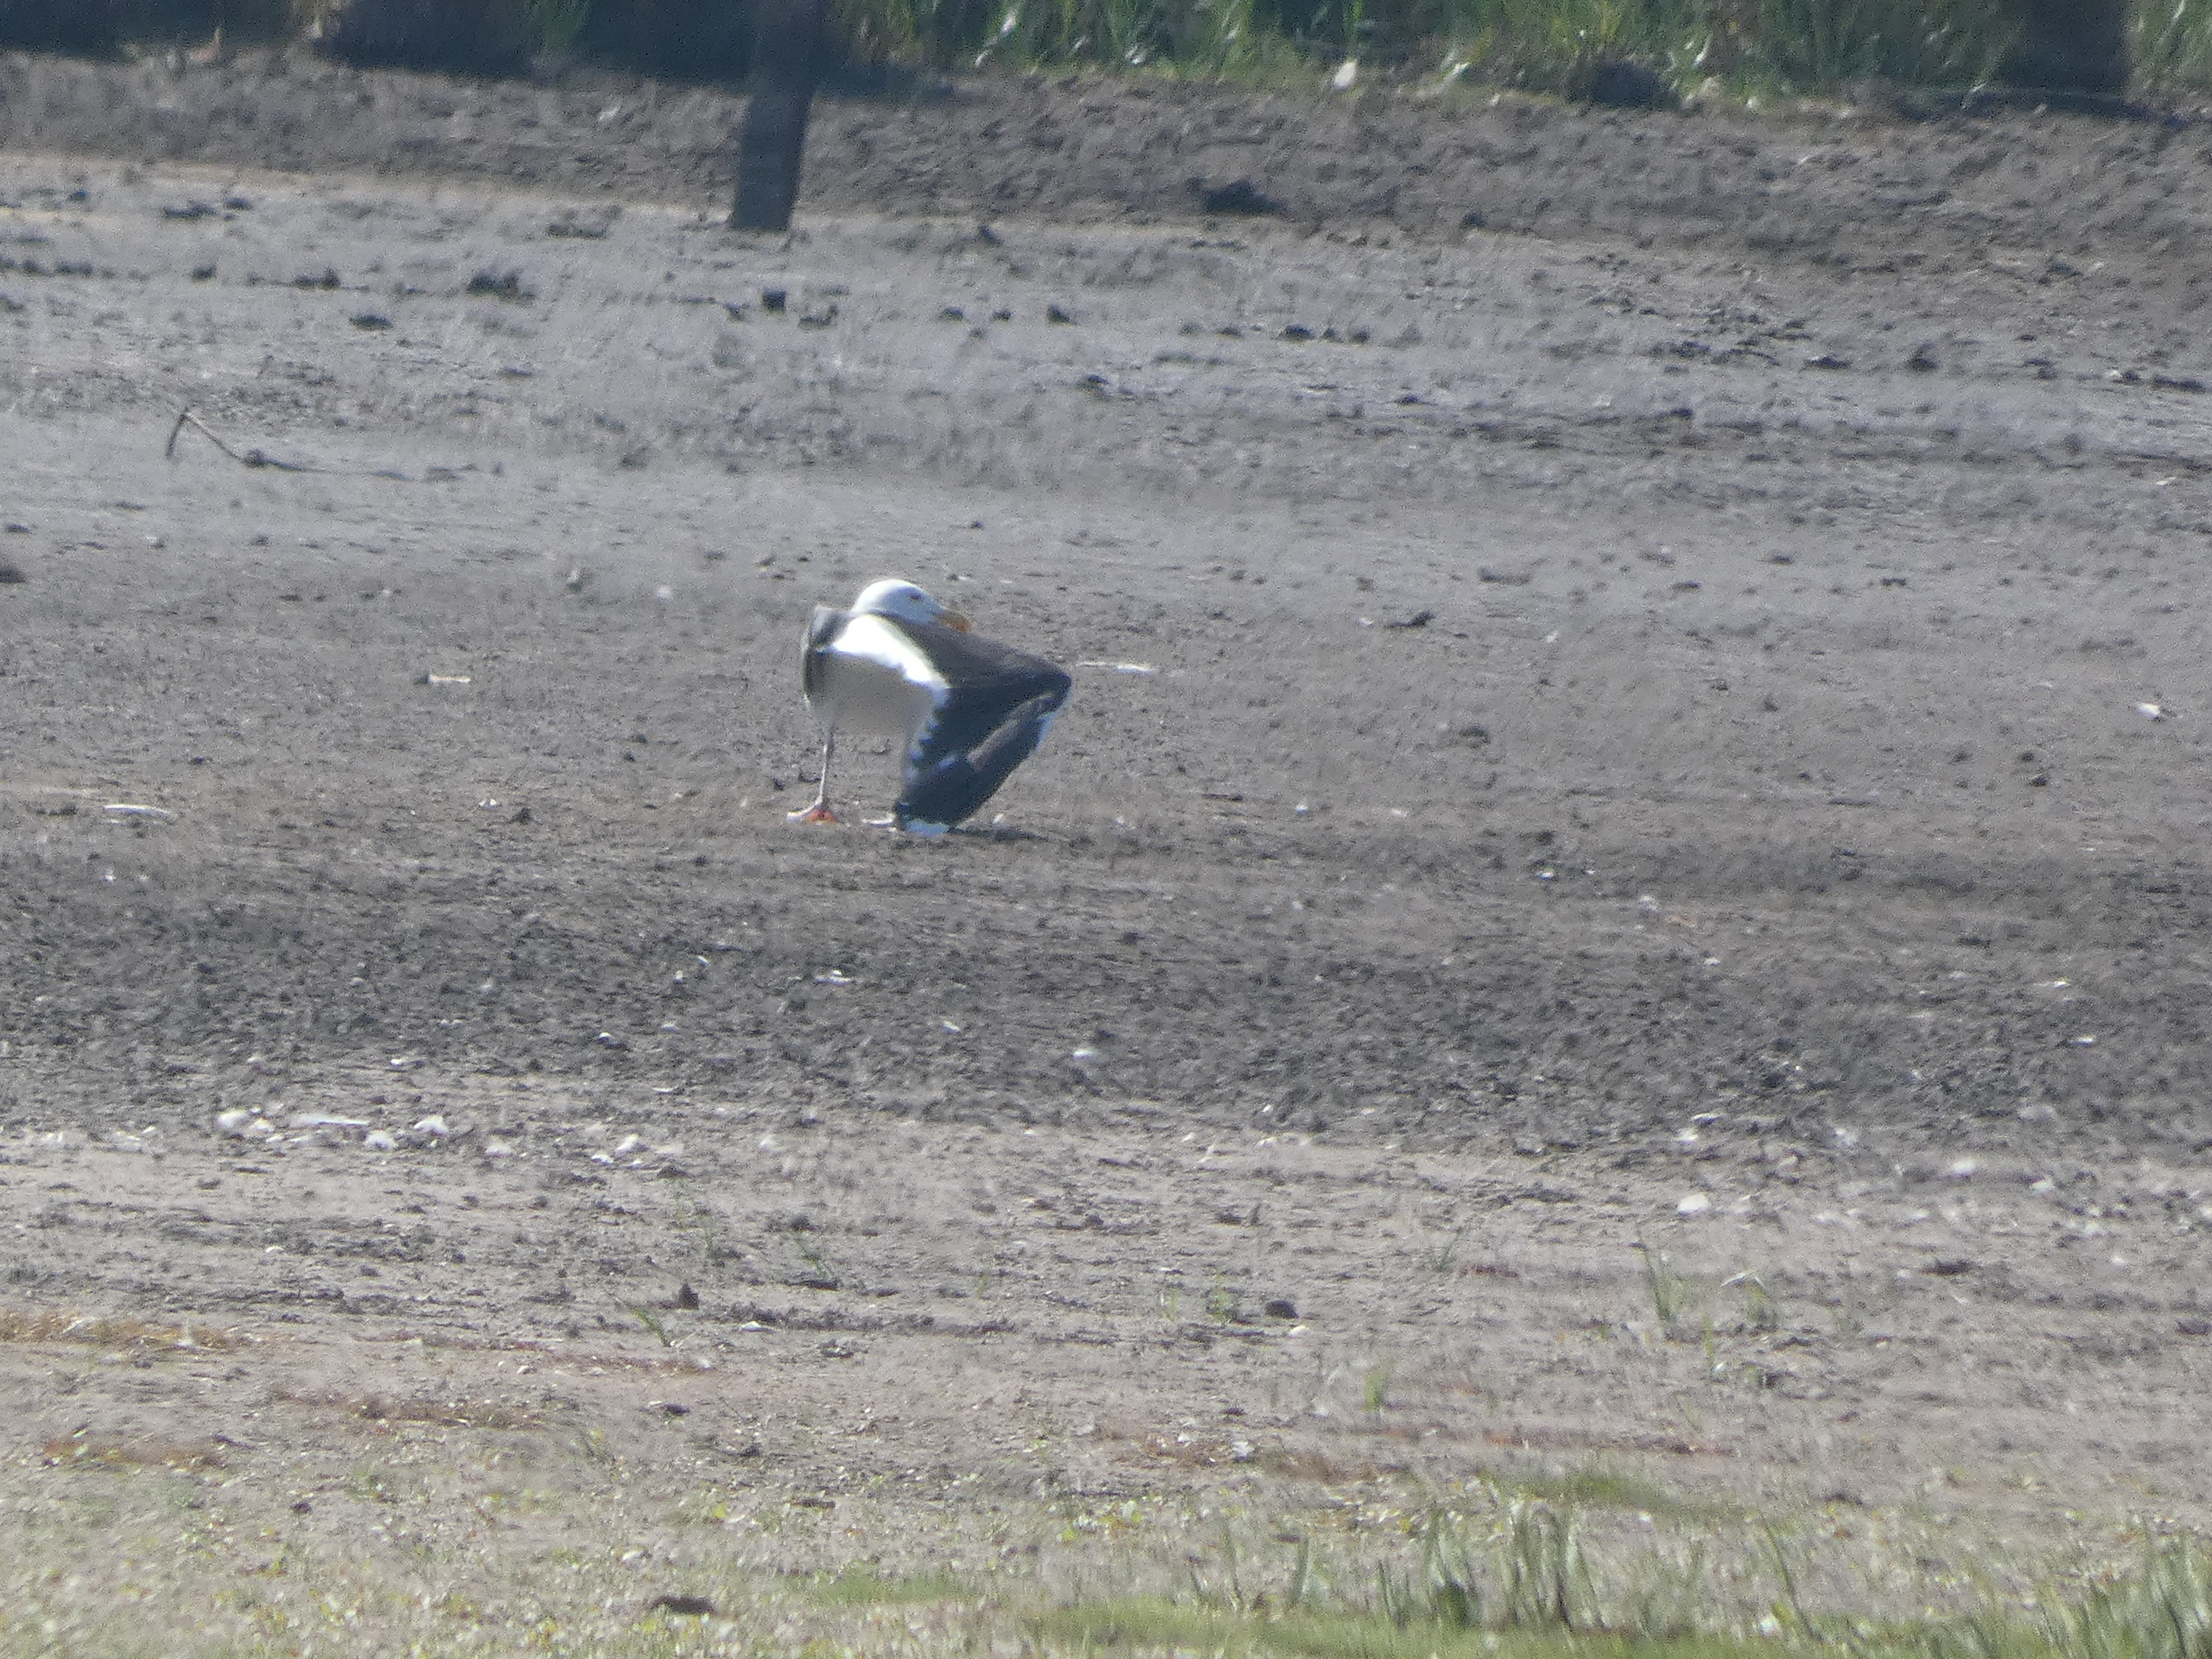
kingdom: Animalia
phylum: Chordata
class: Aves
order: Charadriiformes
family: Laridae
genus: Larus
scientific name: Larus marinus
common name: Svartbag
